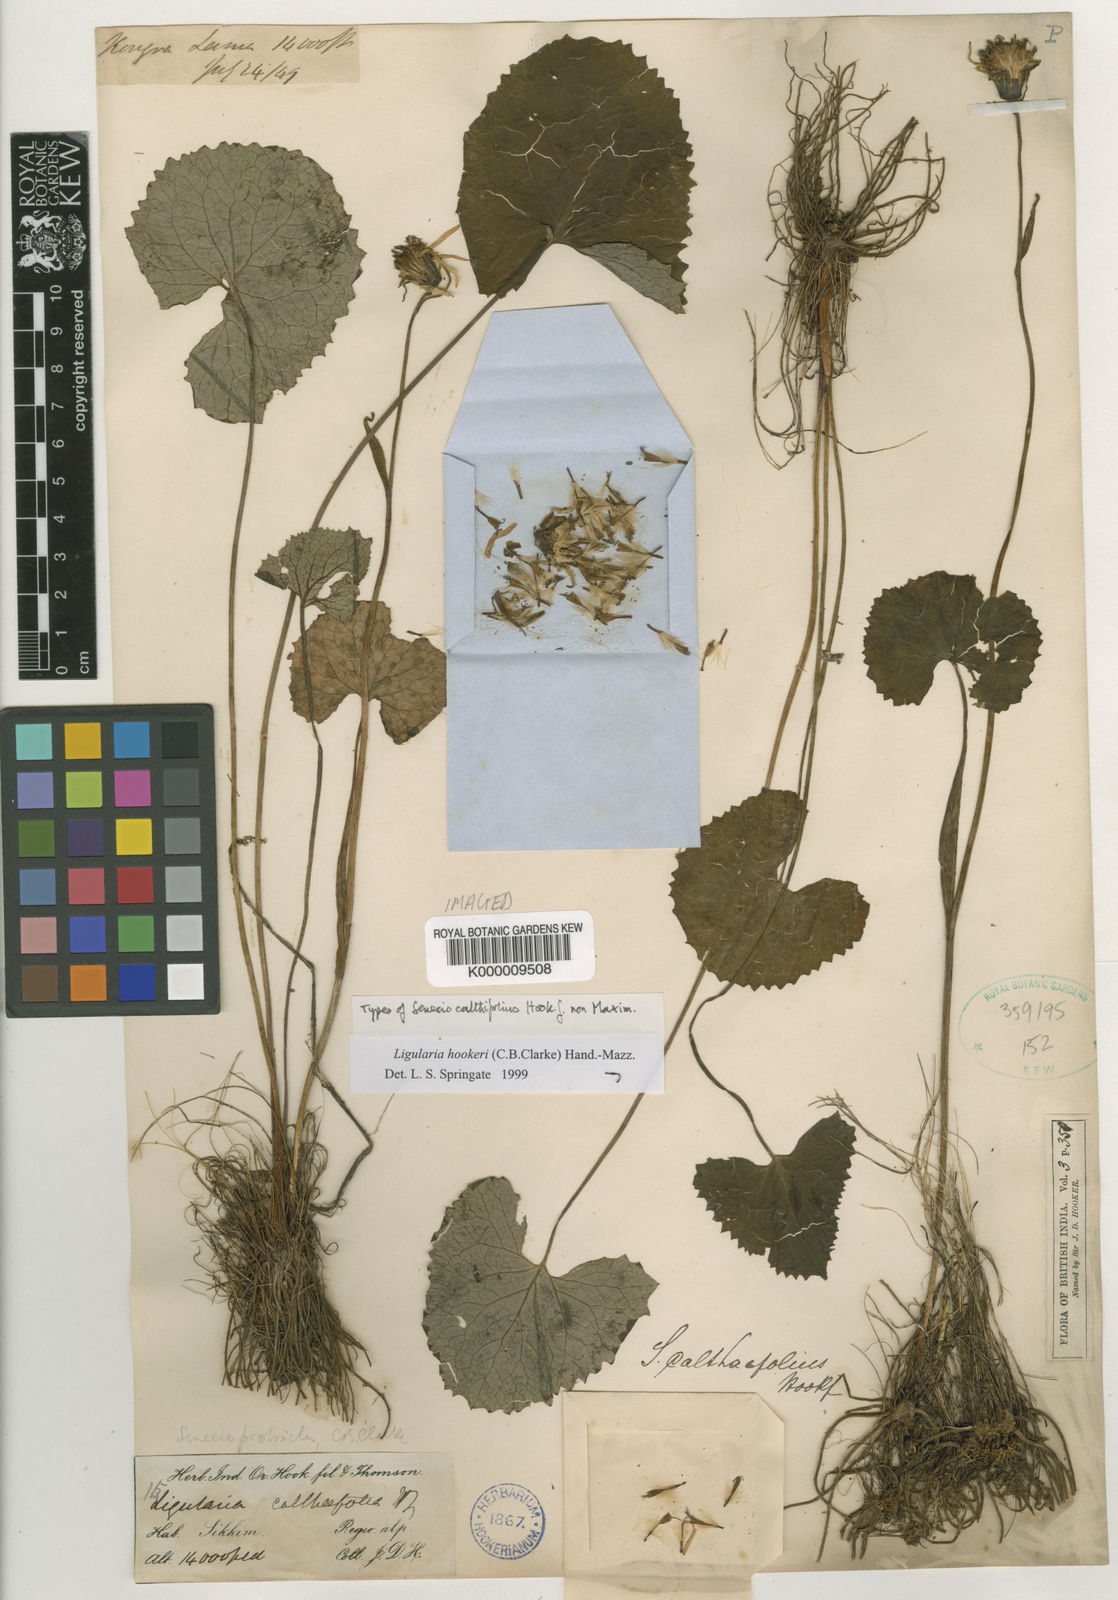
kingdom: Plantae
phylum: Tracheophyta
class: Magnoliopsida
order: Asterales
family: Asteraceae
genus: Ligularia
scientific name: Ligularia hookeri
